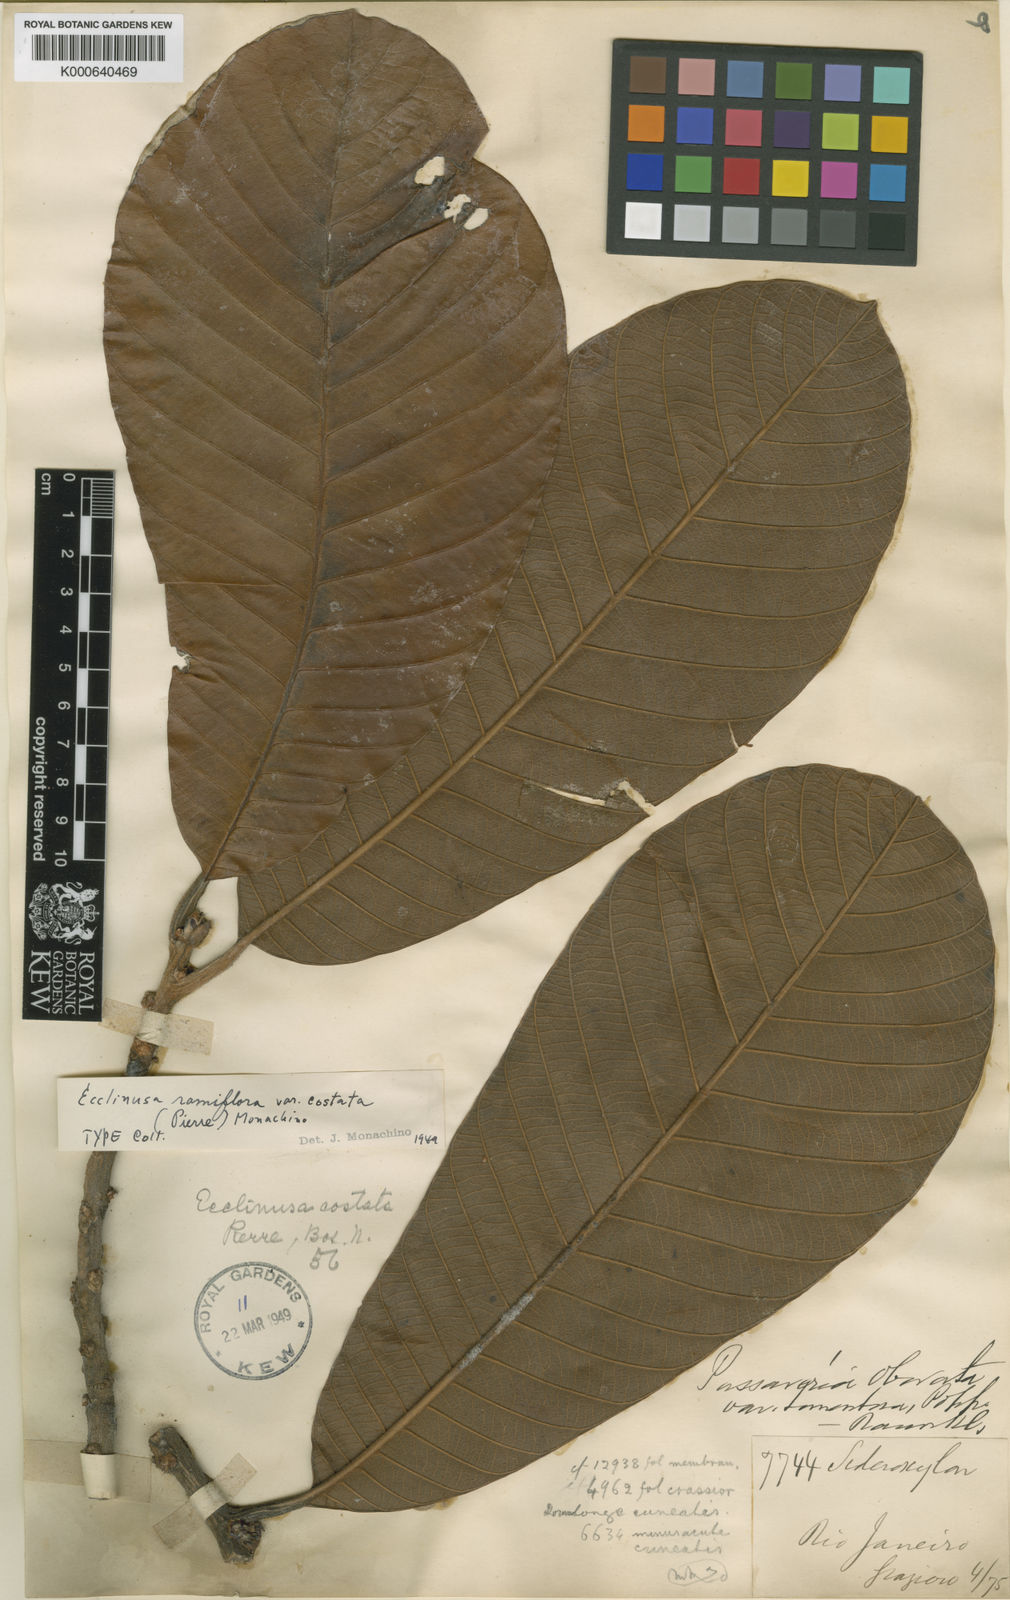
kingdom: Plantae
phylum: Tracheophyta
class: Magnoliopsida
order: Ericales
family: Sapotaceae
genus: Ecclinusa
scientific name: Ecclinusa ramiflora
